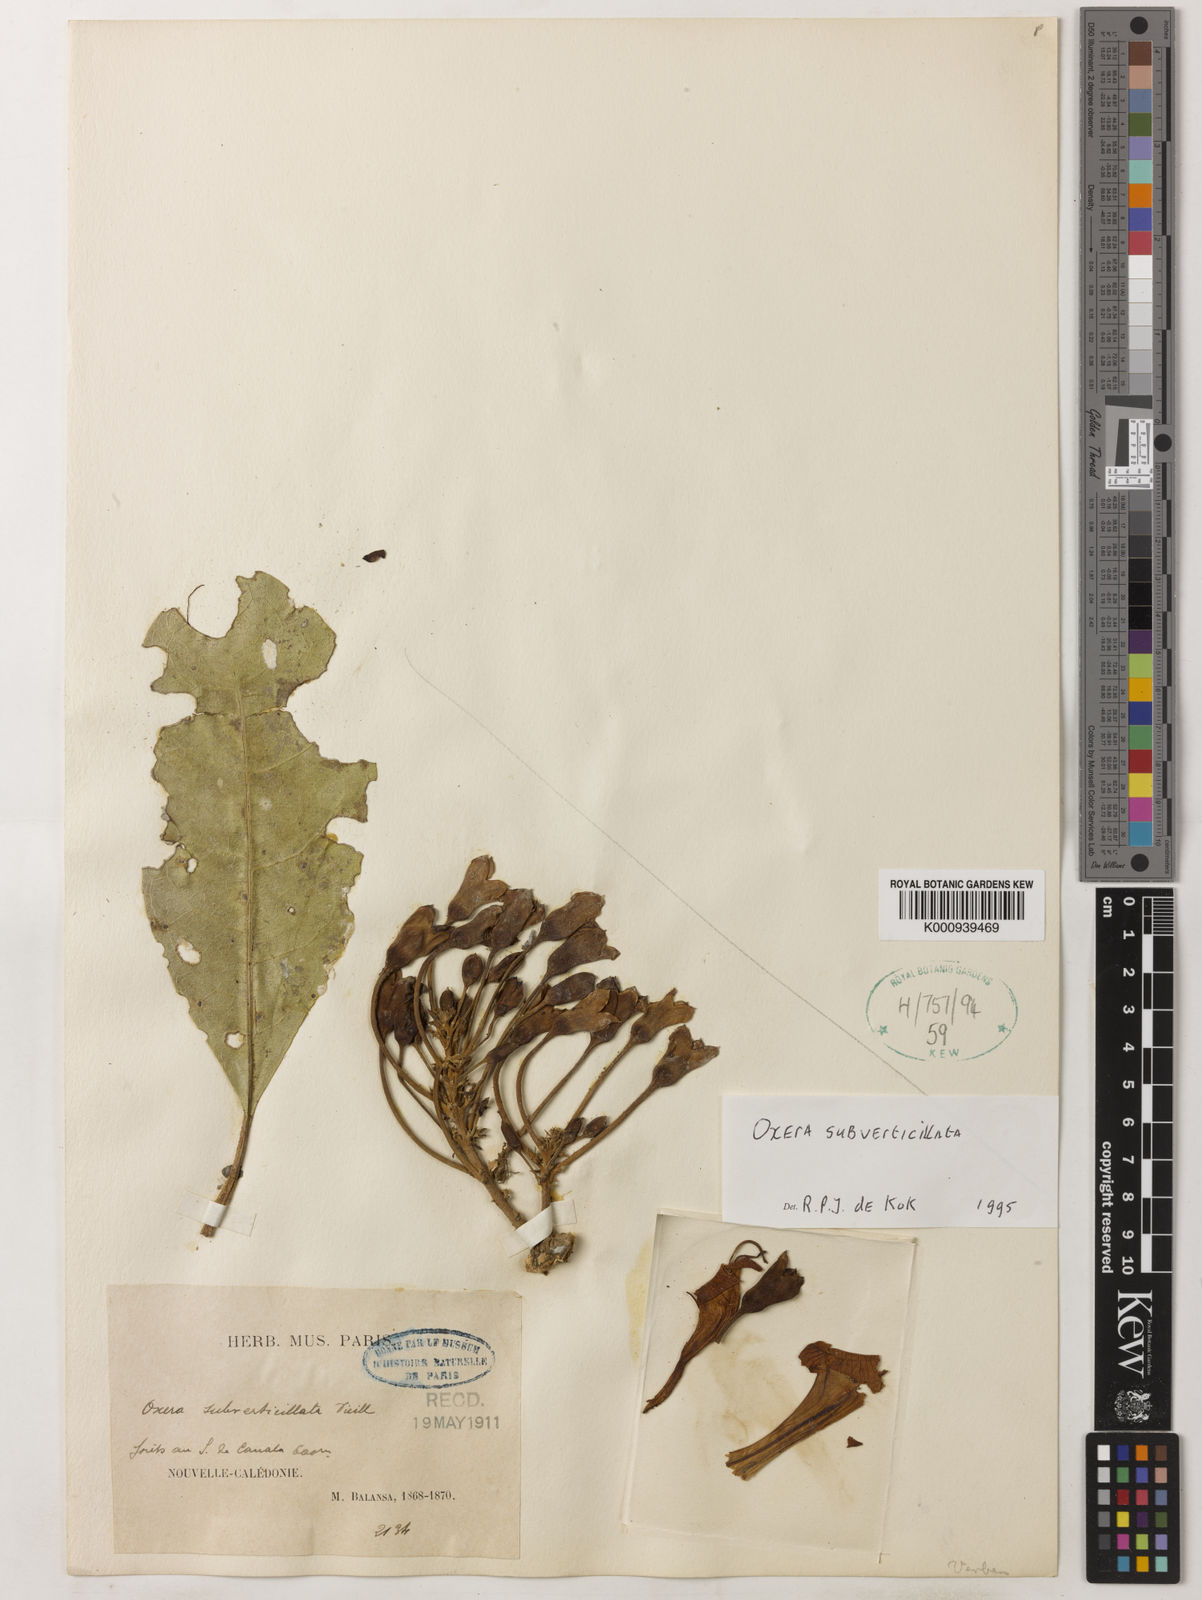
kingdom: Plantae
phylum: Tracheophyta
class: Magnoliopsida
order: Lamiales
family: Lamiaceae
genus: Oxera
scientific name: Oxera subverticillata
